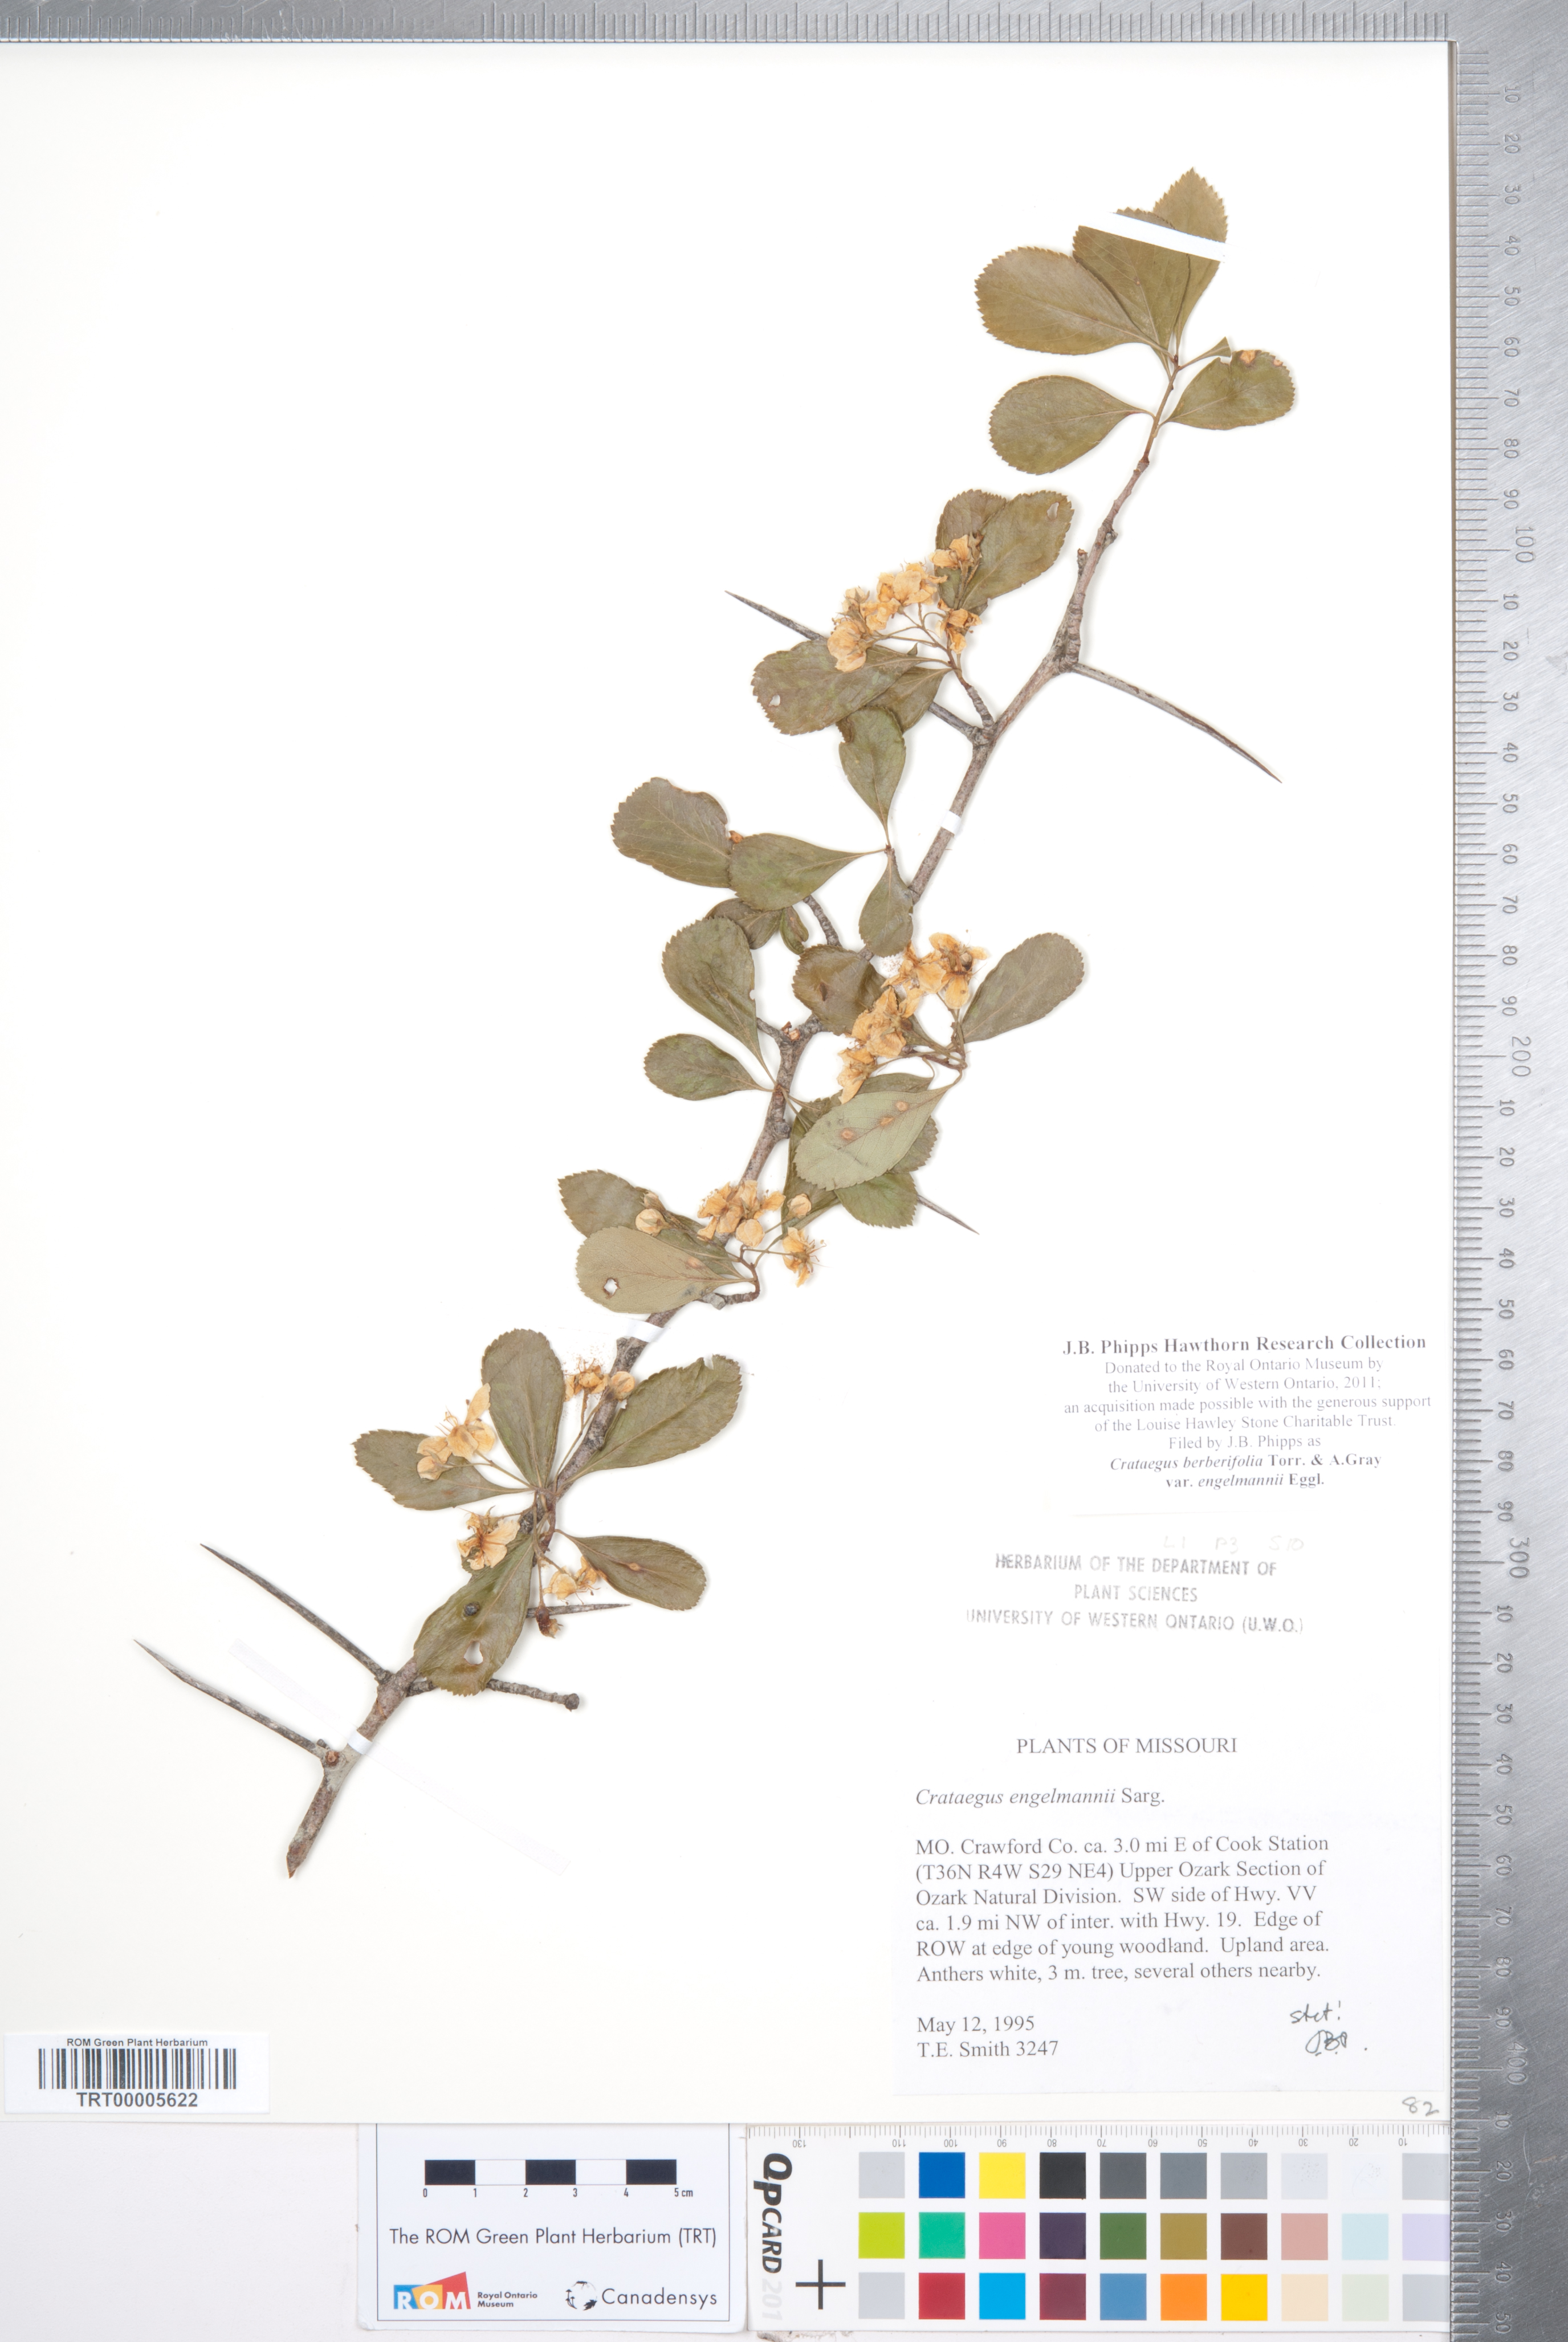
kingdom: Plantae
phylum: Tracheophyta
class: Magnoliopsida
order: Rosales
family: Rosaceae
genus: Crataegus
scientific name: Crataegus berberifolia
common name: Barberry hawthorn
